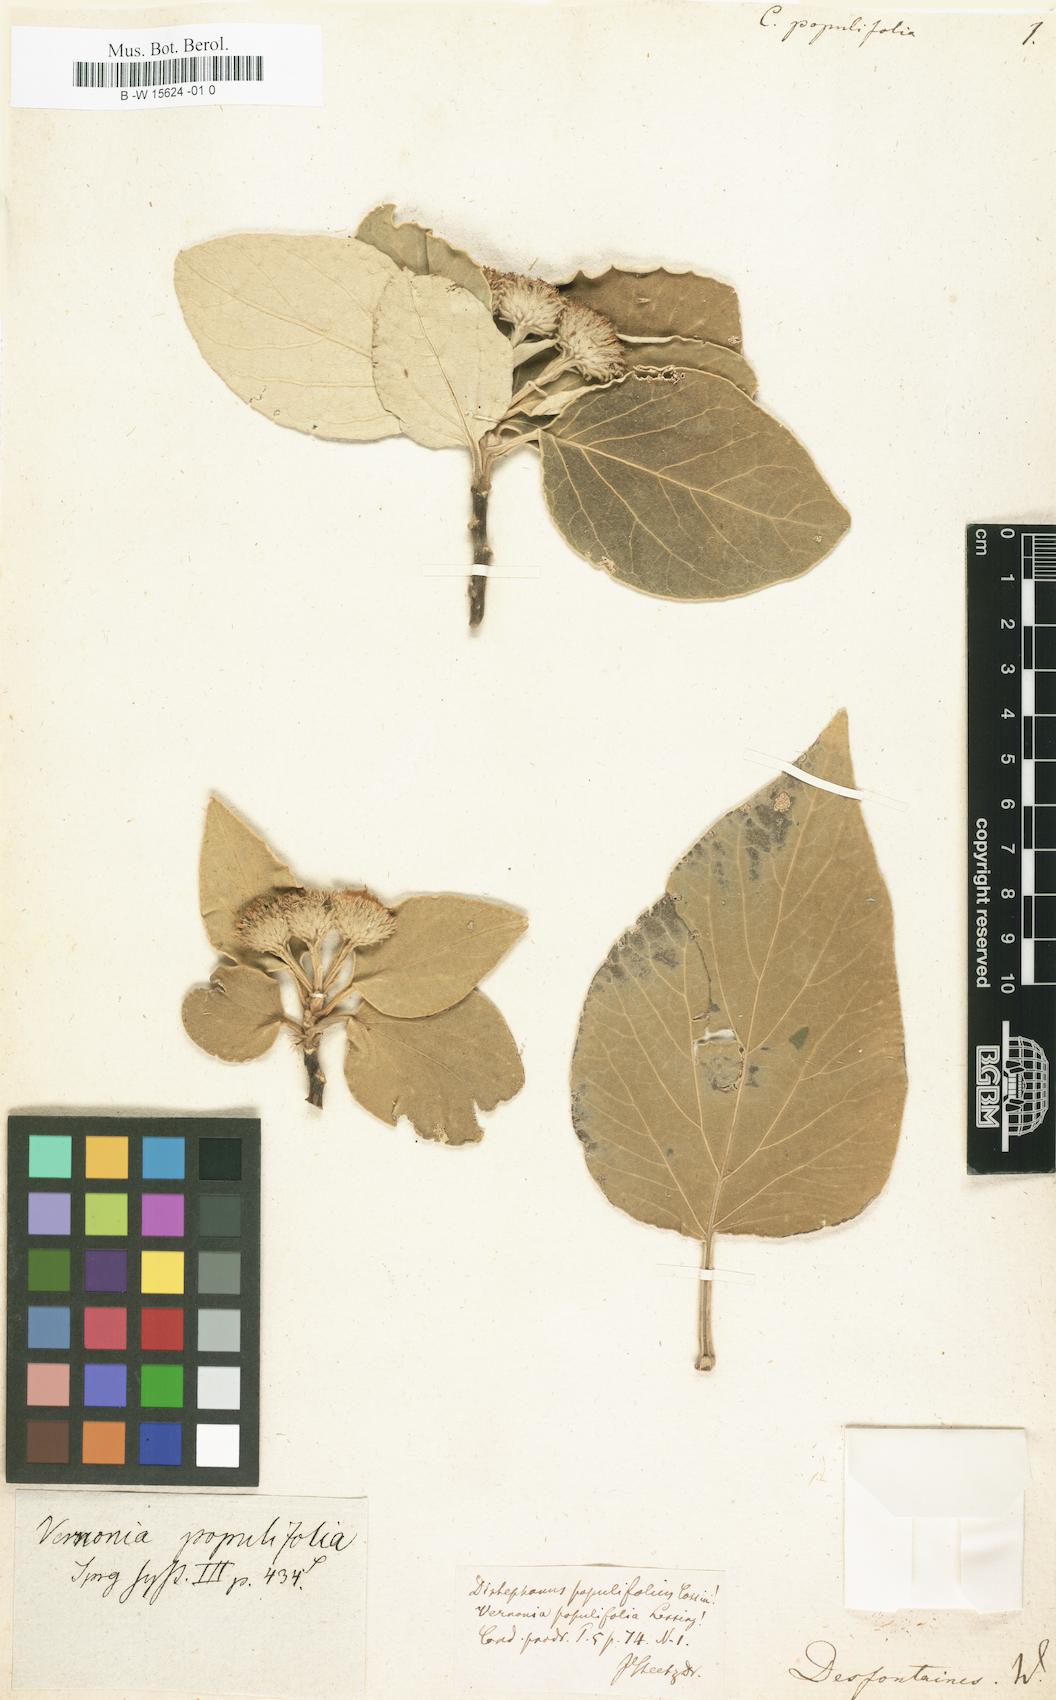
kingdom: Plantae
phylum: Tracheophyta
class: Magnoliopsida
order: Asterales
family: Asteraceae
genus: Distephanus
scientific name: Distephanus populifolius
